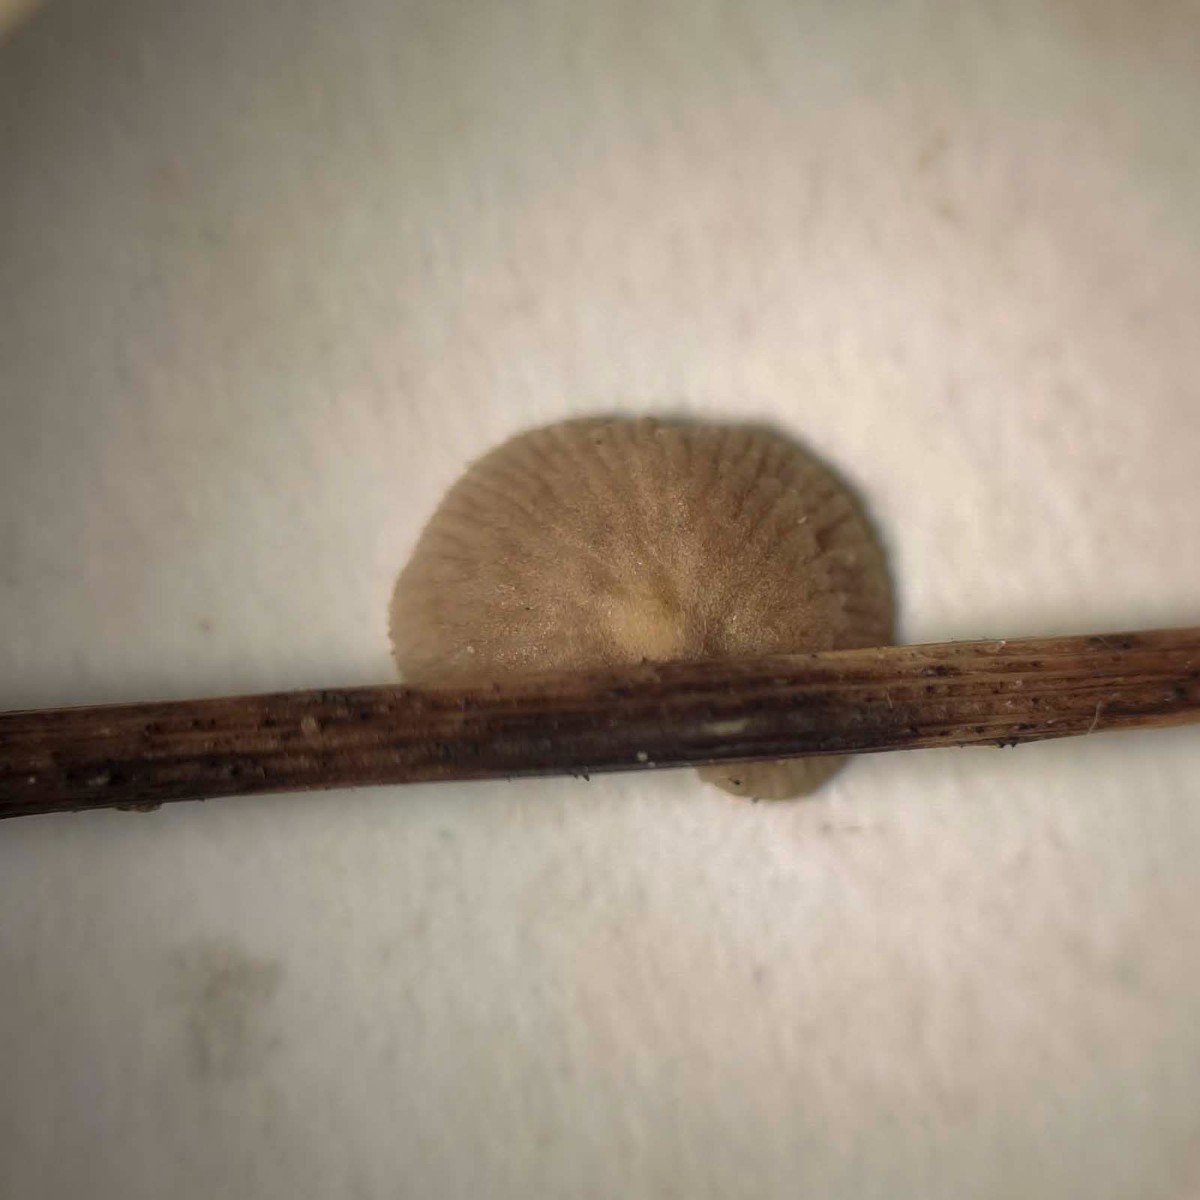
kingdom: Fungi
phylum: Basidiomycota
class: Agaricomycetes
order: Agaricales
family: Strophariaceae
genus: Deconica
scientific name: Deconica phillipsii
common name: almindelig stråhat
